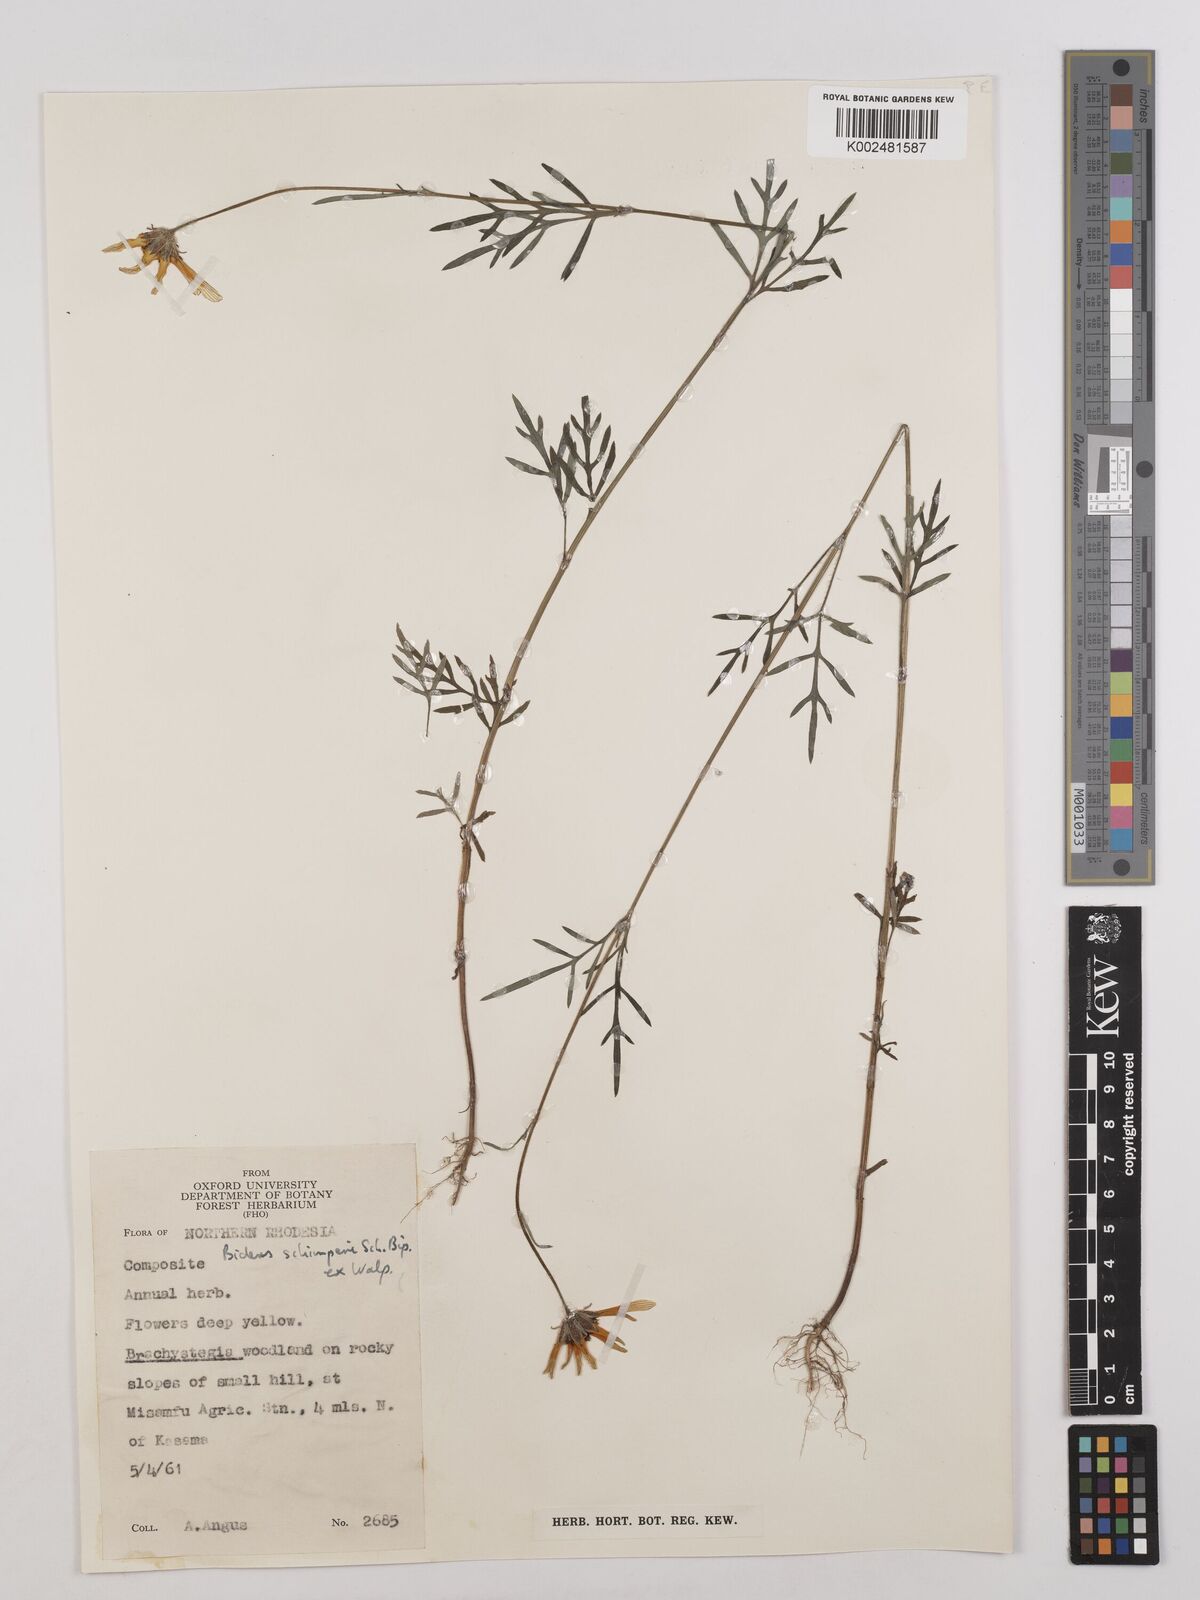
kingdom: Plantae
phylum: Tracheophyta
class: Magnoliopsida
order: Asterales
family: Asteraceae
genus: Bidens
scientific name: Bidens schimperi
